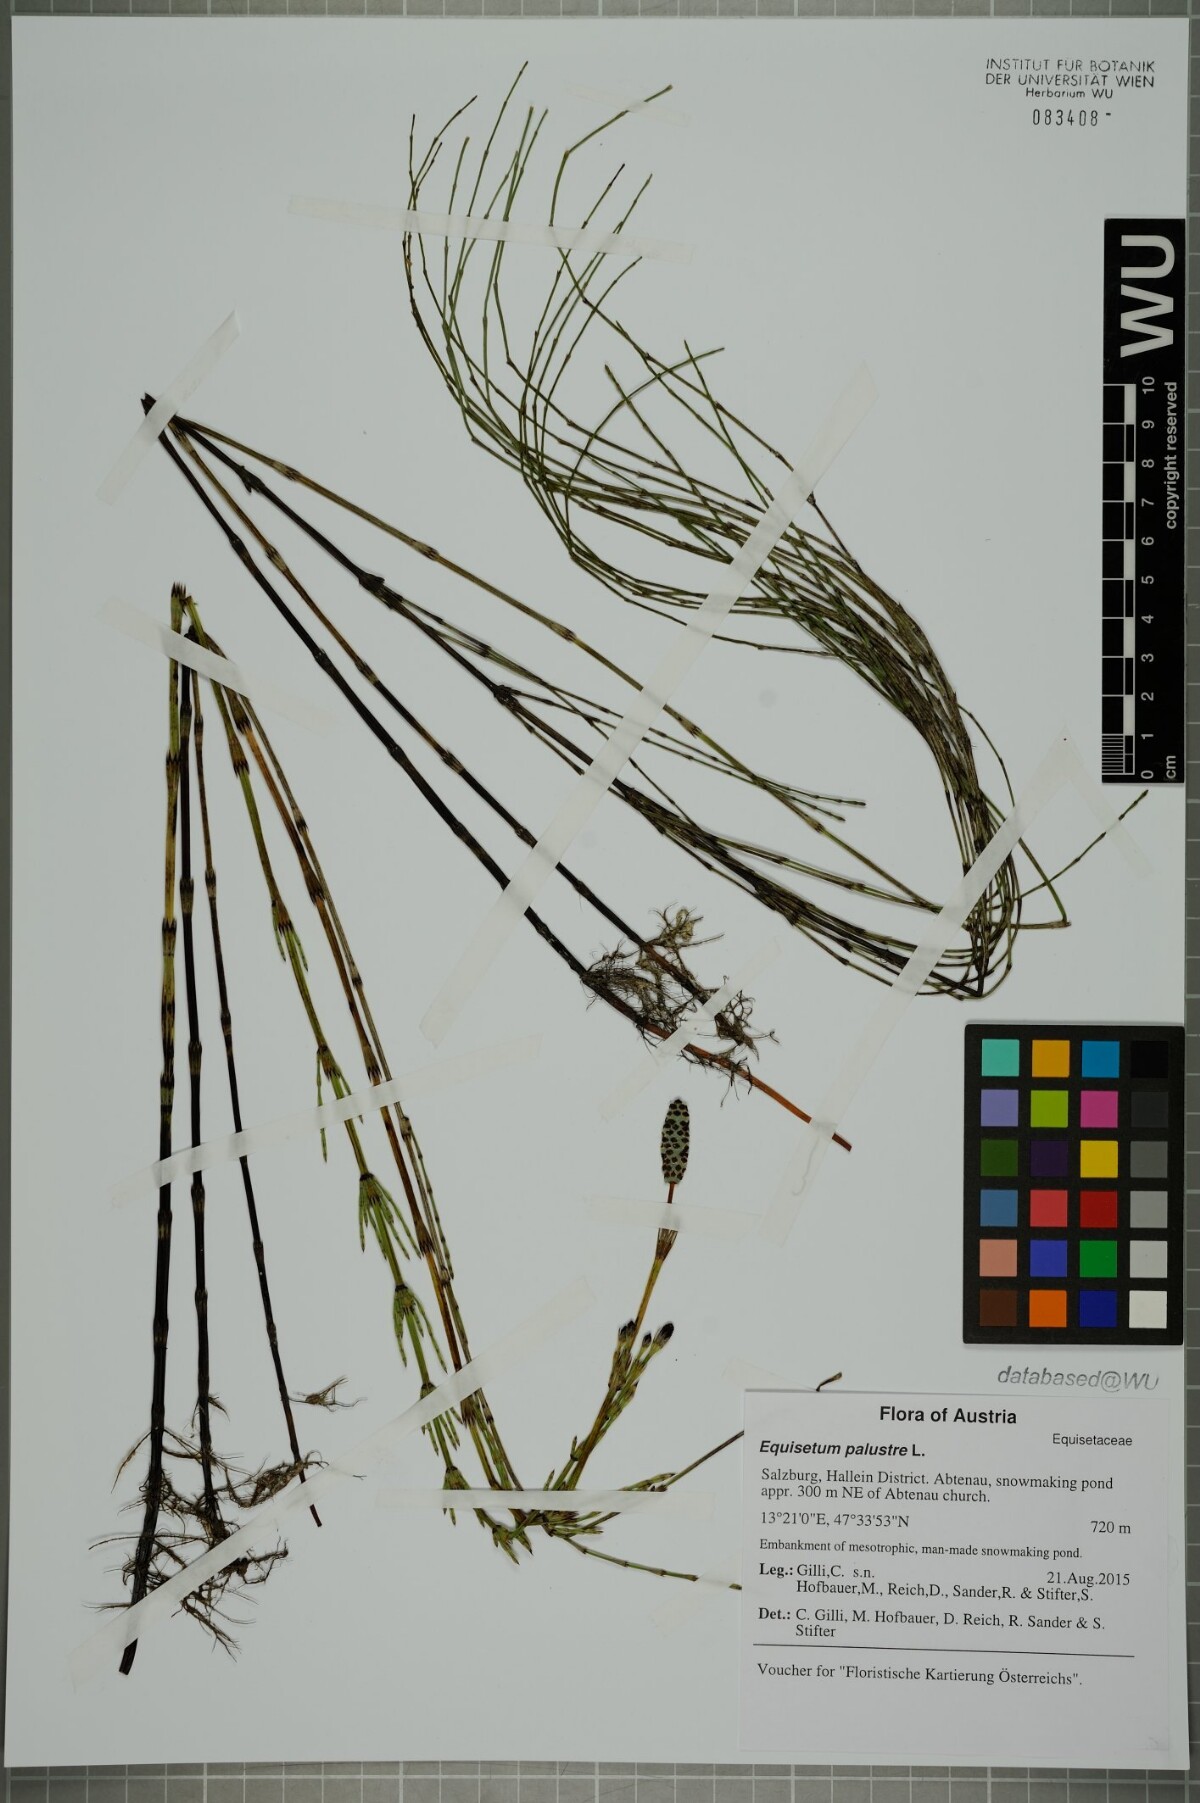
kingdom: Plantae
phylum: Tracheophyta
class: Polypodiopsida
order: Equisetales
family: Equisetaceae
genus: Equisetum
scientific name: Equisetum palustre
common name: Marsh horsetail
